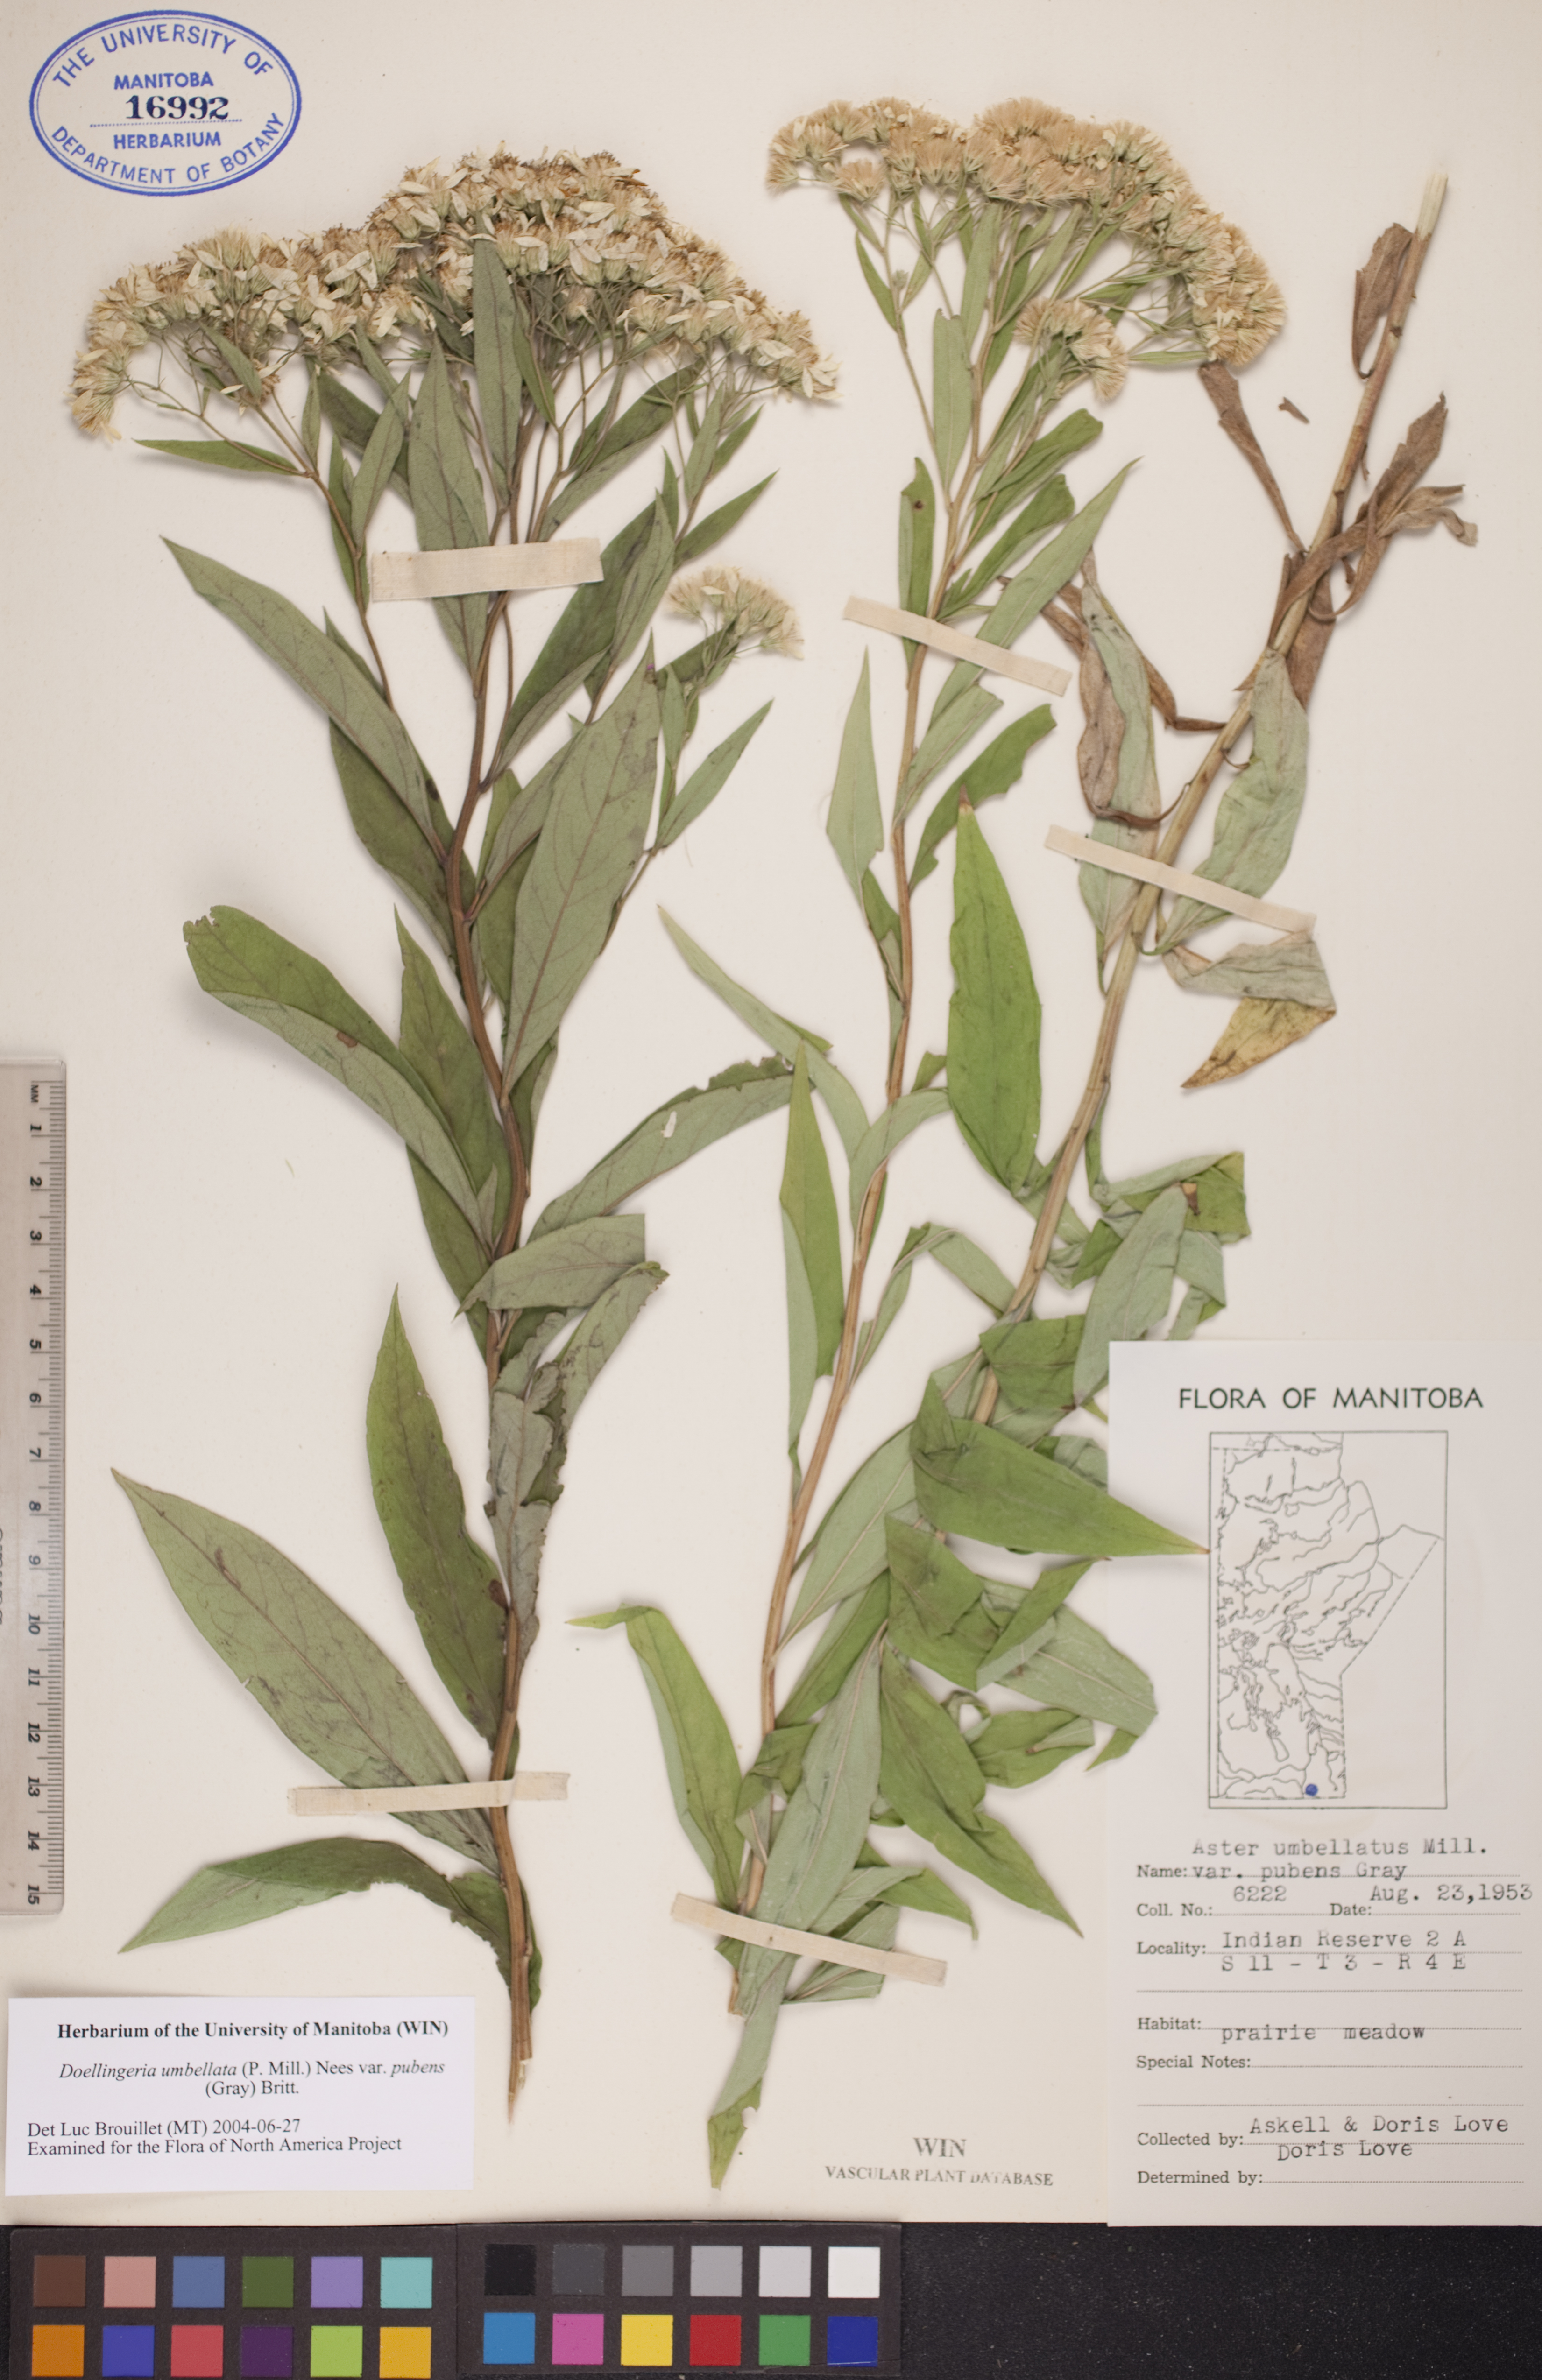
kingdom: Plantae
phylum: Tracheophyta
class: Magnoliopsida
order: Asterales
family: Asteraceae
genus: Doellingeria
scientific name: Doellingeria umbellata
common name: Flat-top white aster
